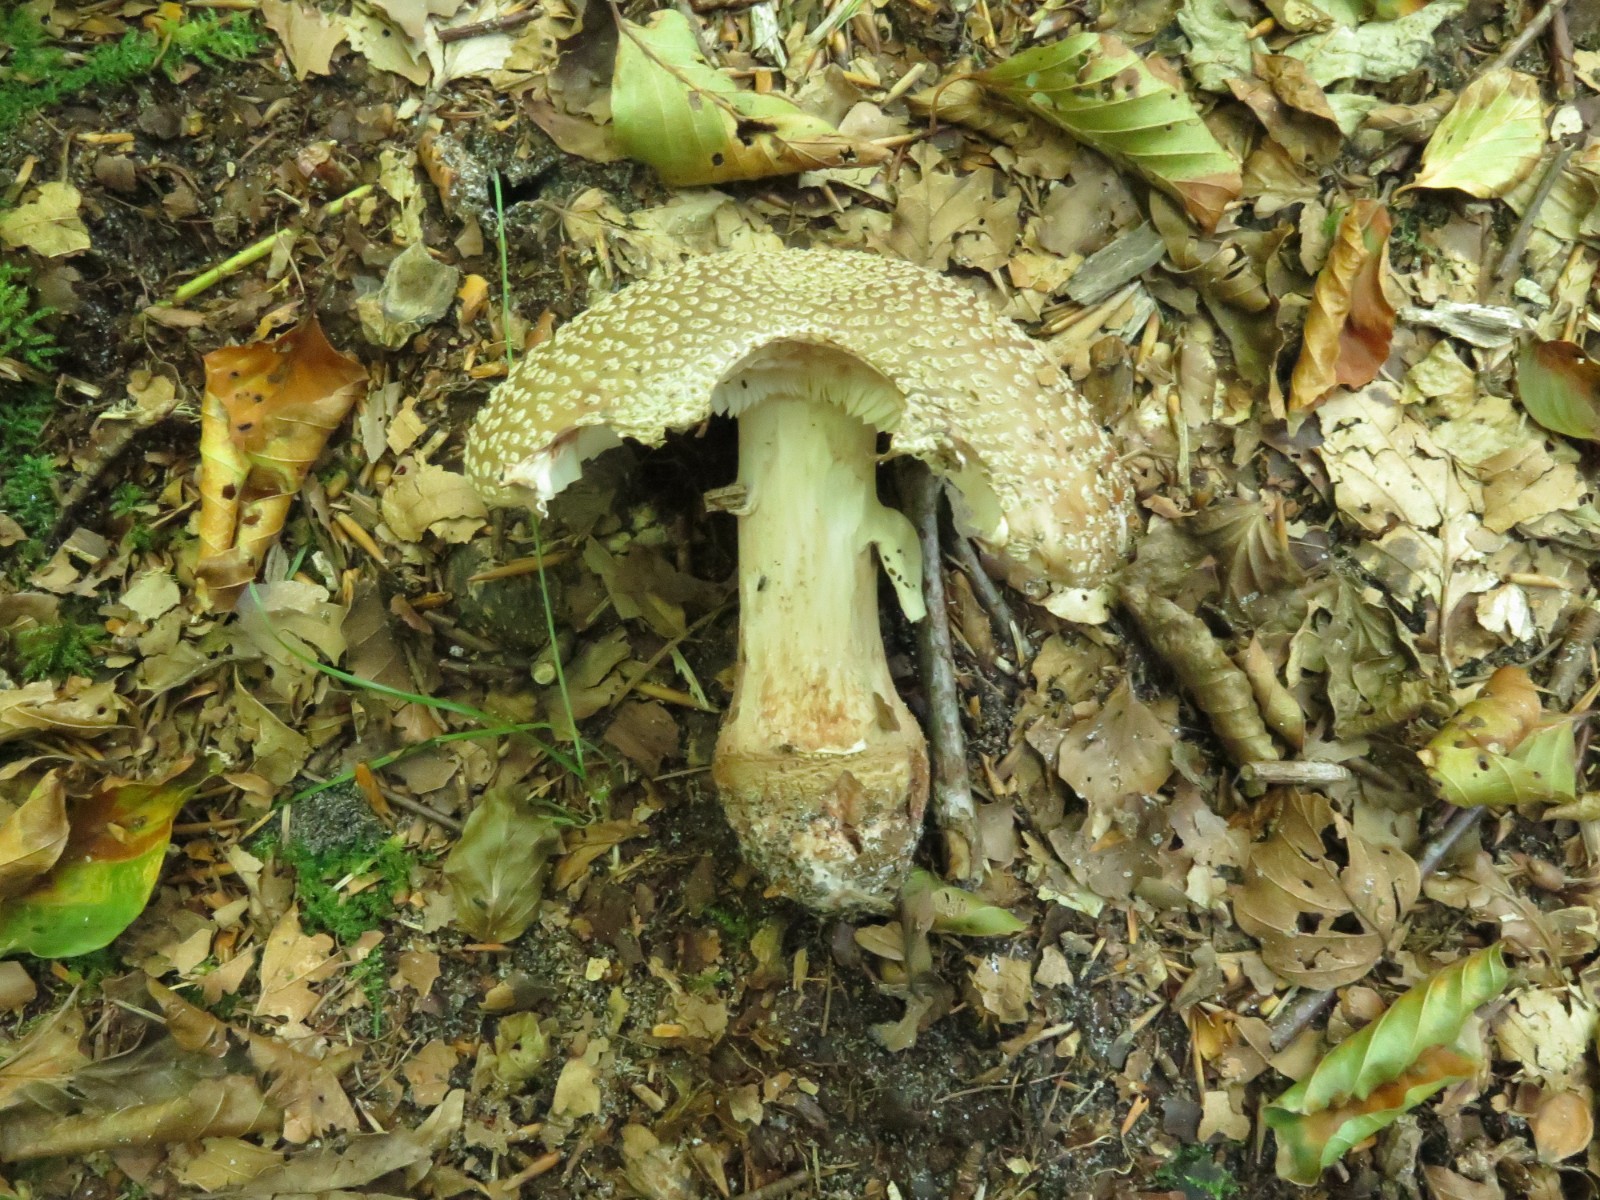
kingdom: Fungi
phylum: Basidiomycota
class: Agaricomycetes
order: Agaricales
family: Amanitaceae
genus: Amanita
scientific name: Amanita rubescens
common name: rødmende fluesvamp
